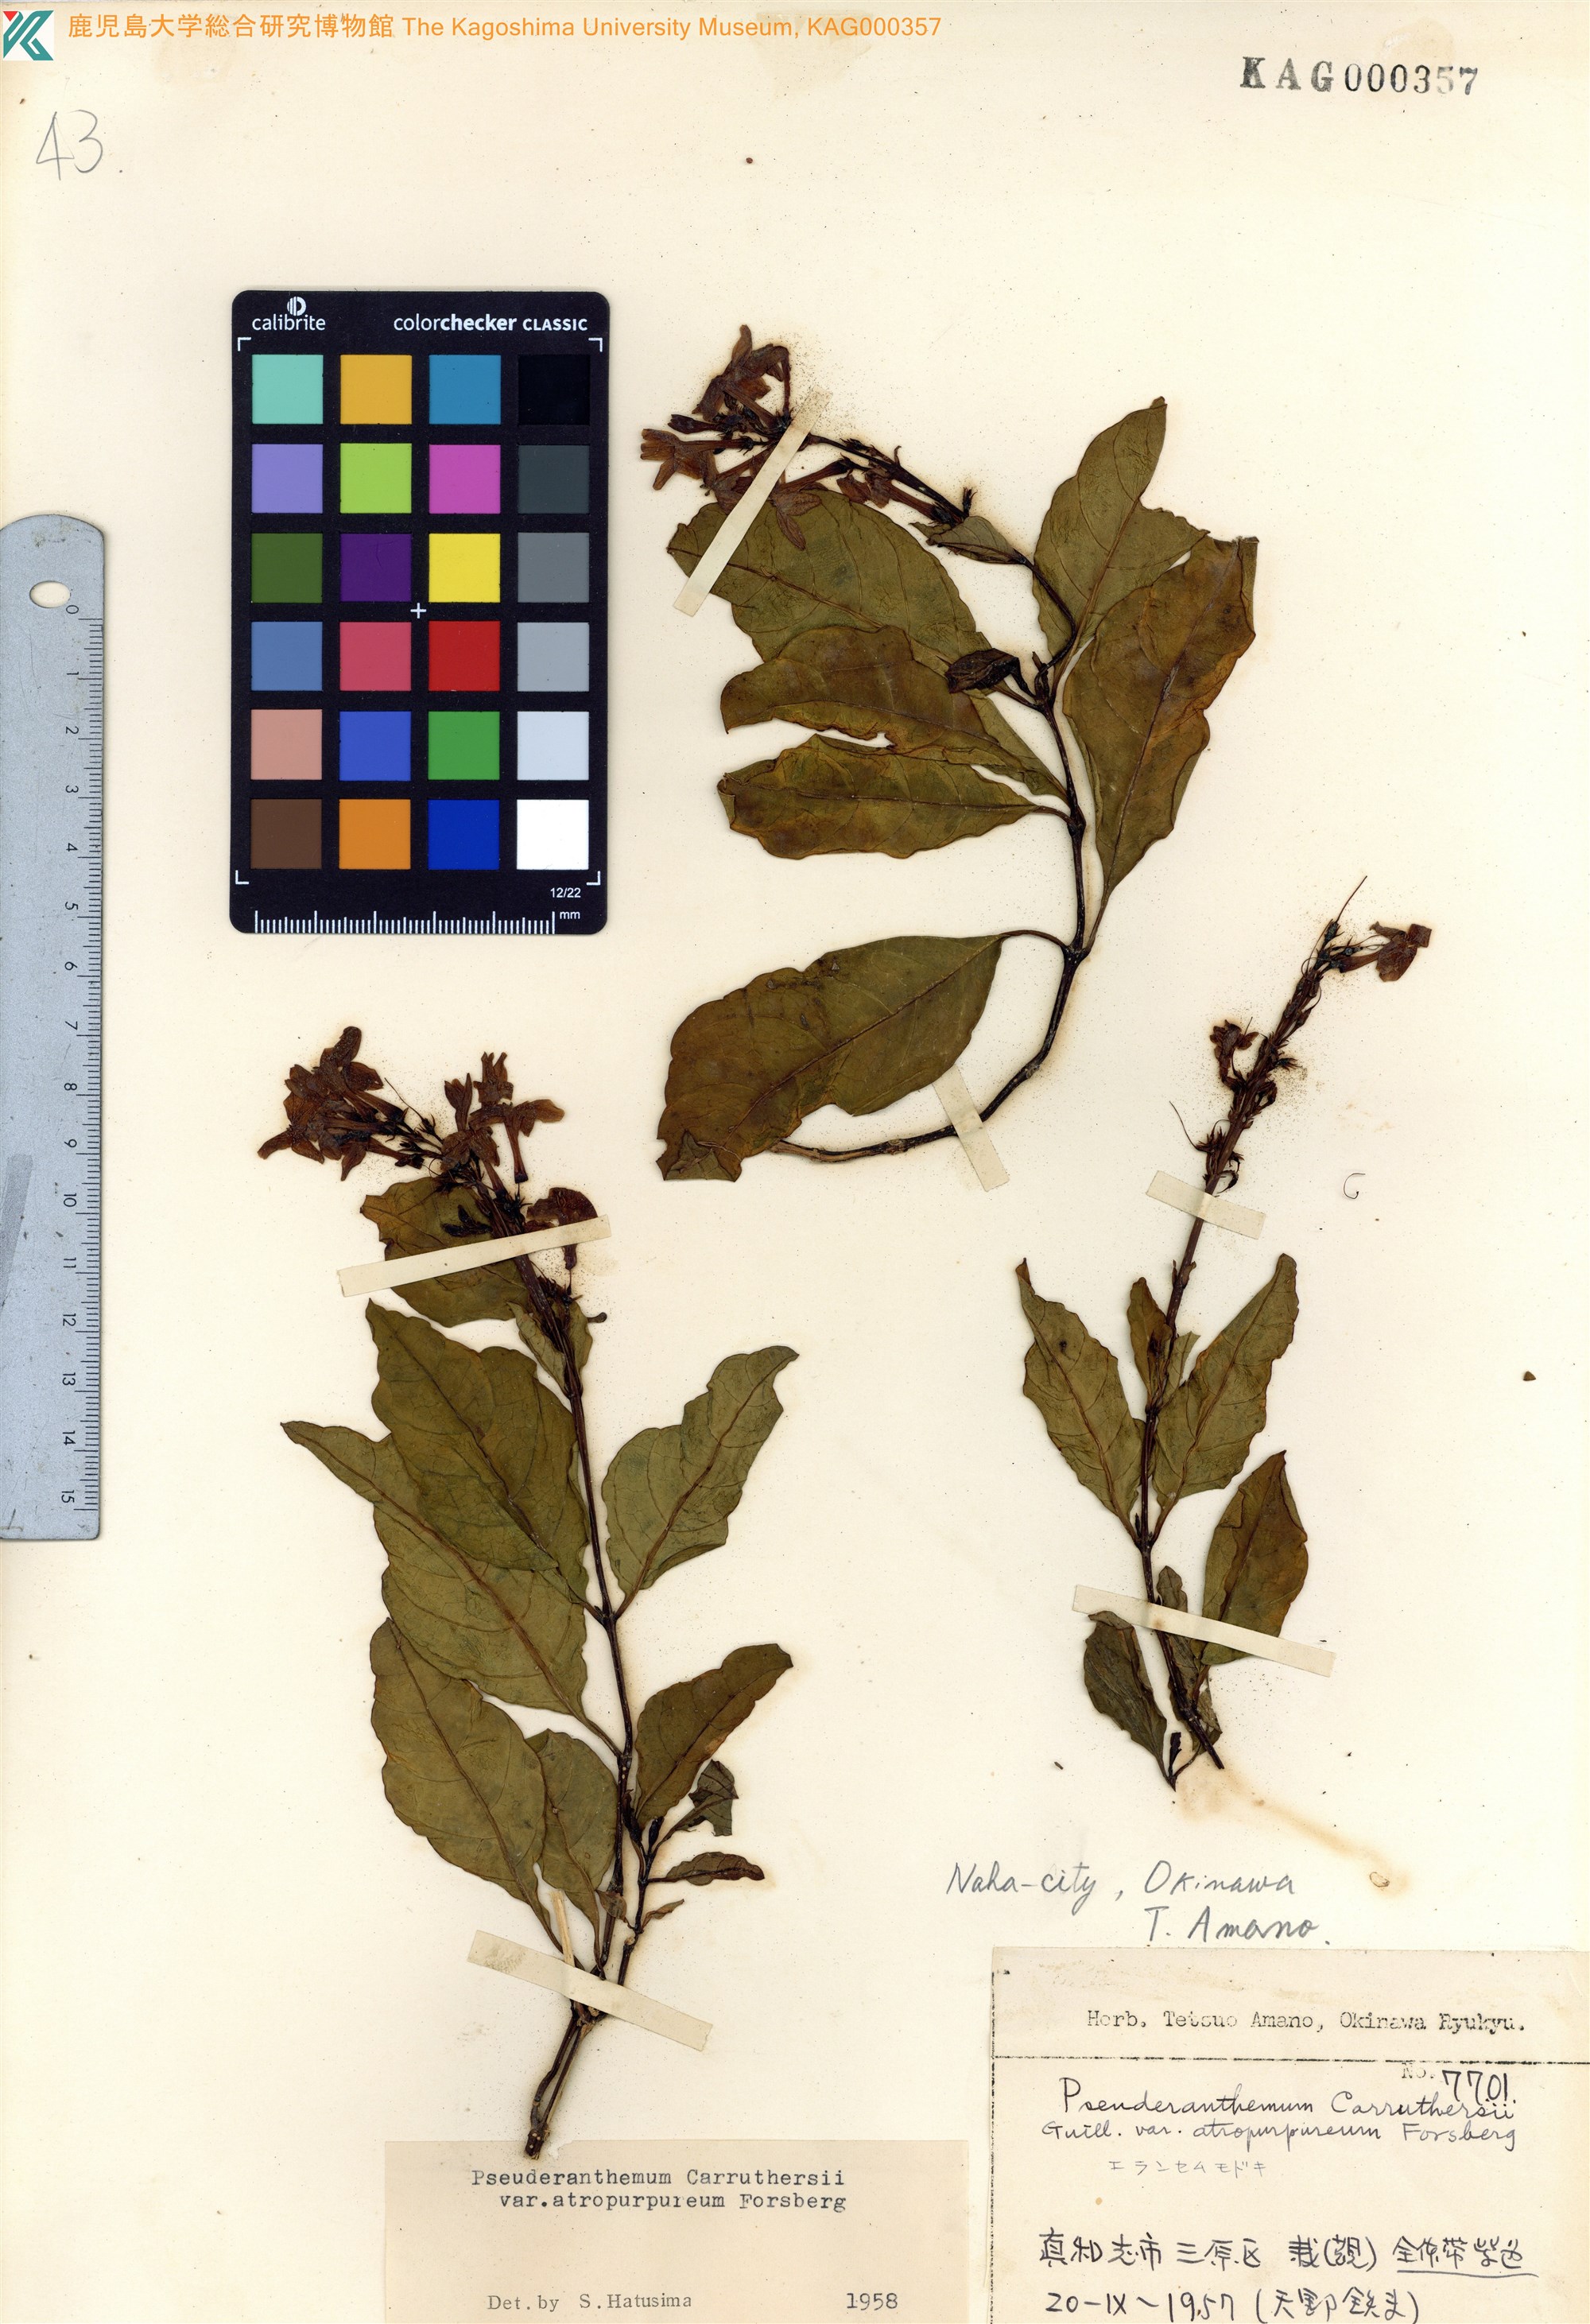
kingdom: Plantae
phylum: Tracheophyta
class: Magnoliopsida
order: Lamiales
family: Acanthaceae
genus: Pseuderanthemum
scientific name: Pseuderanthemum maculatum
